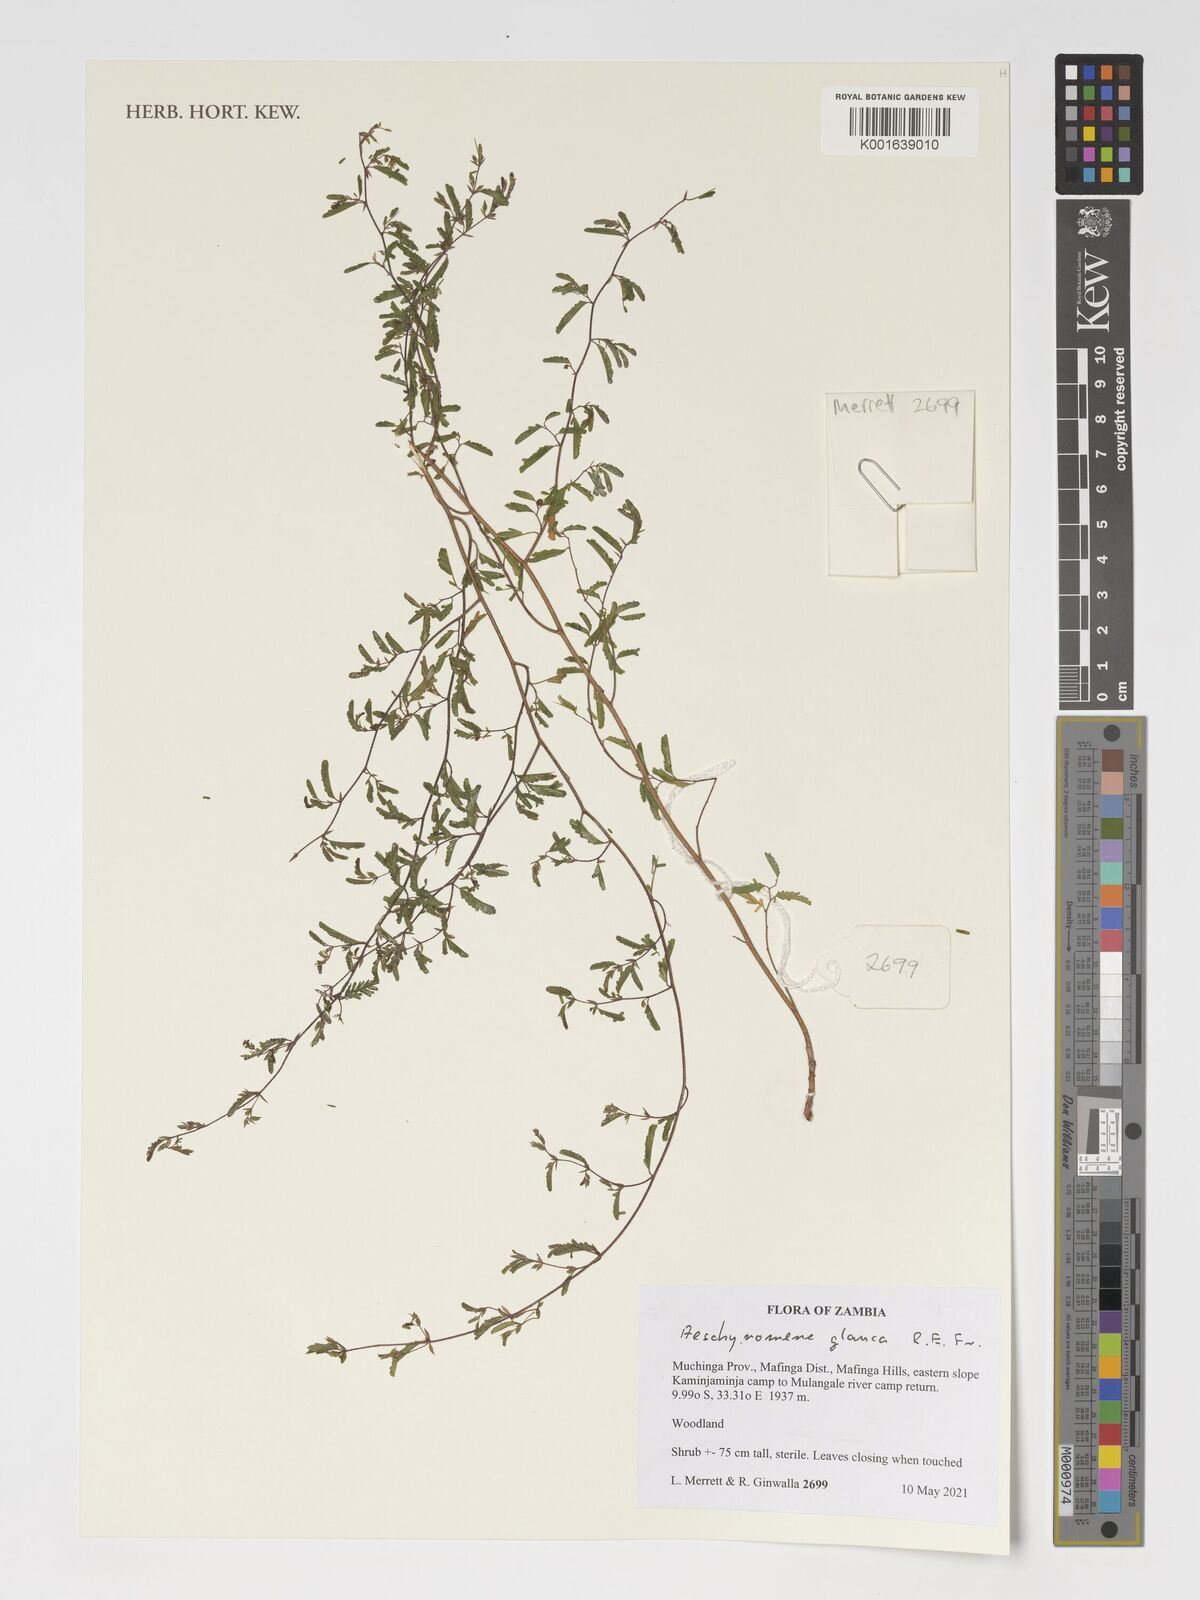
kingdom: Plantae
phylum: Tracheophyta
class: Magnoliopsida
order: Fabales
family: Fabaceae
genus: Aeschynomene
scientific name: Aeschynomene glauca
